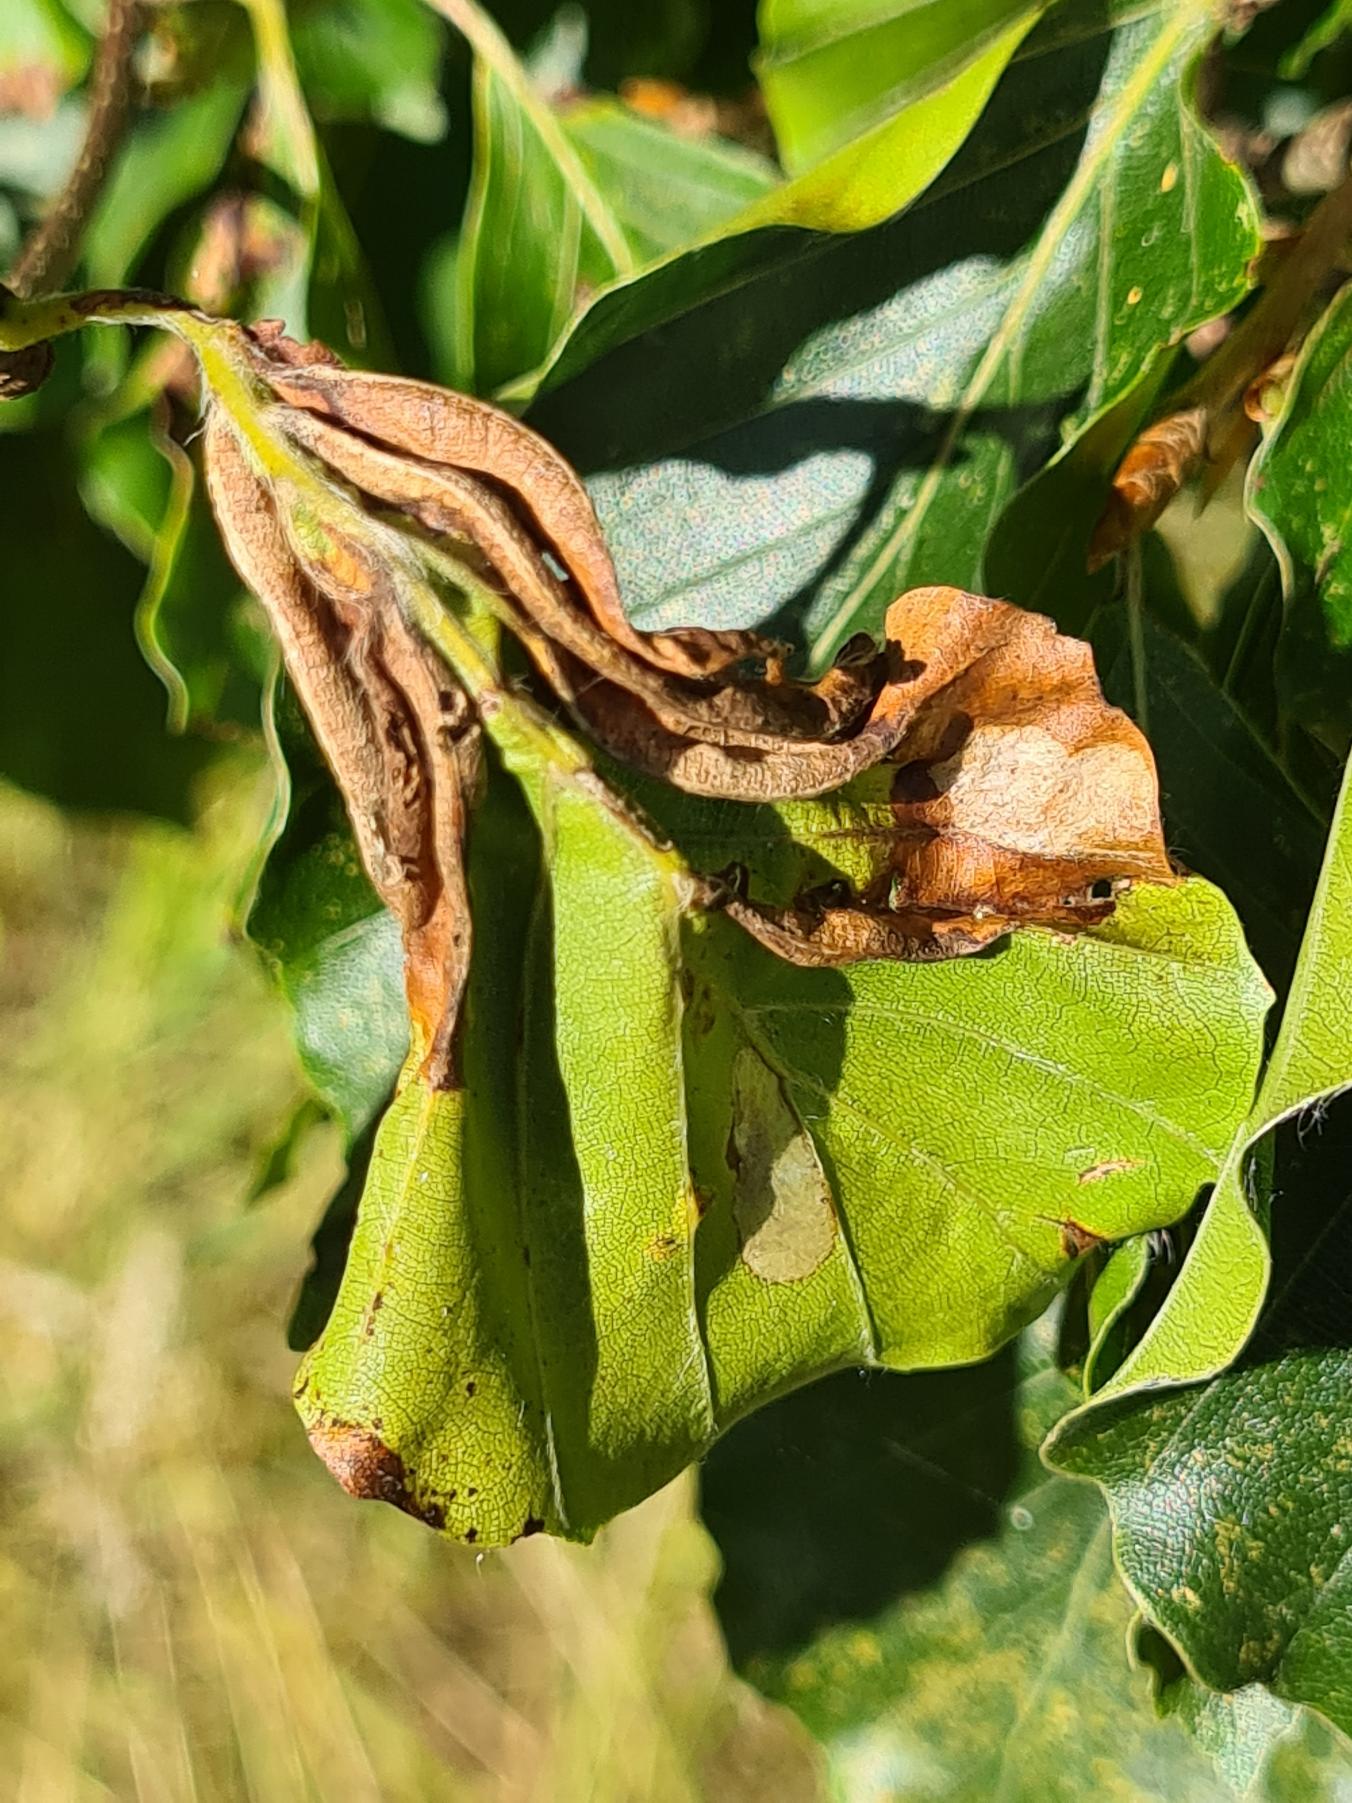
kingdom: Animalia
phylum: Arthropoda
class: Insecta
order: Diptera
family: Cecidomyiidae
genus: Phegomyia
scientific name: Phegomyia fagicola
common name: Bøgefoldegalmyg
